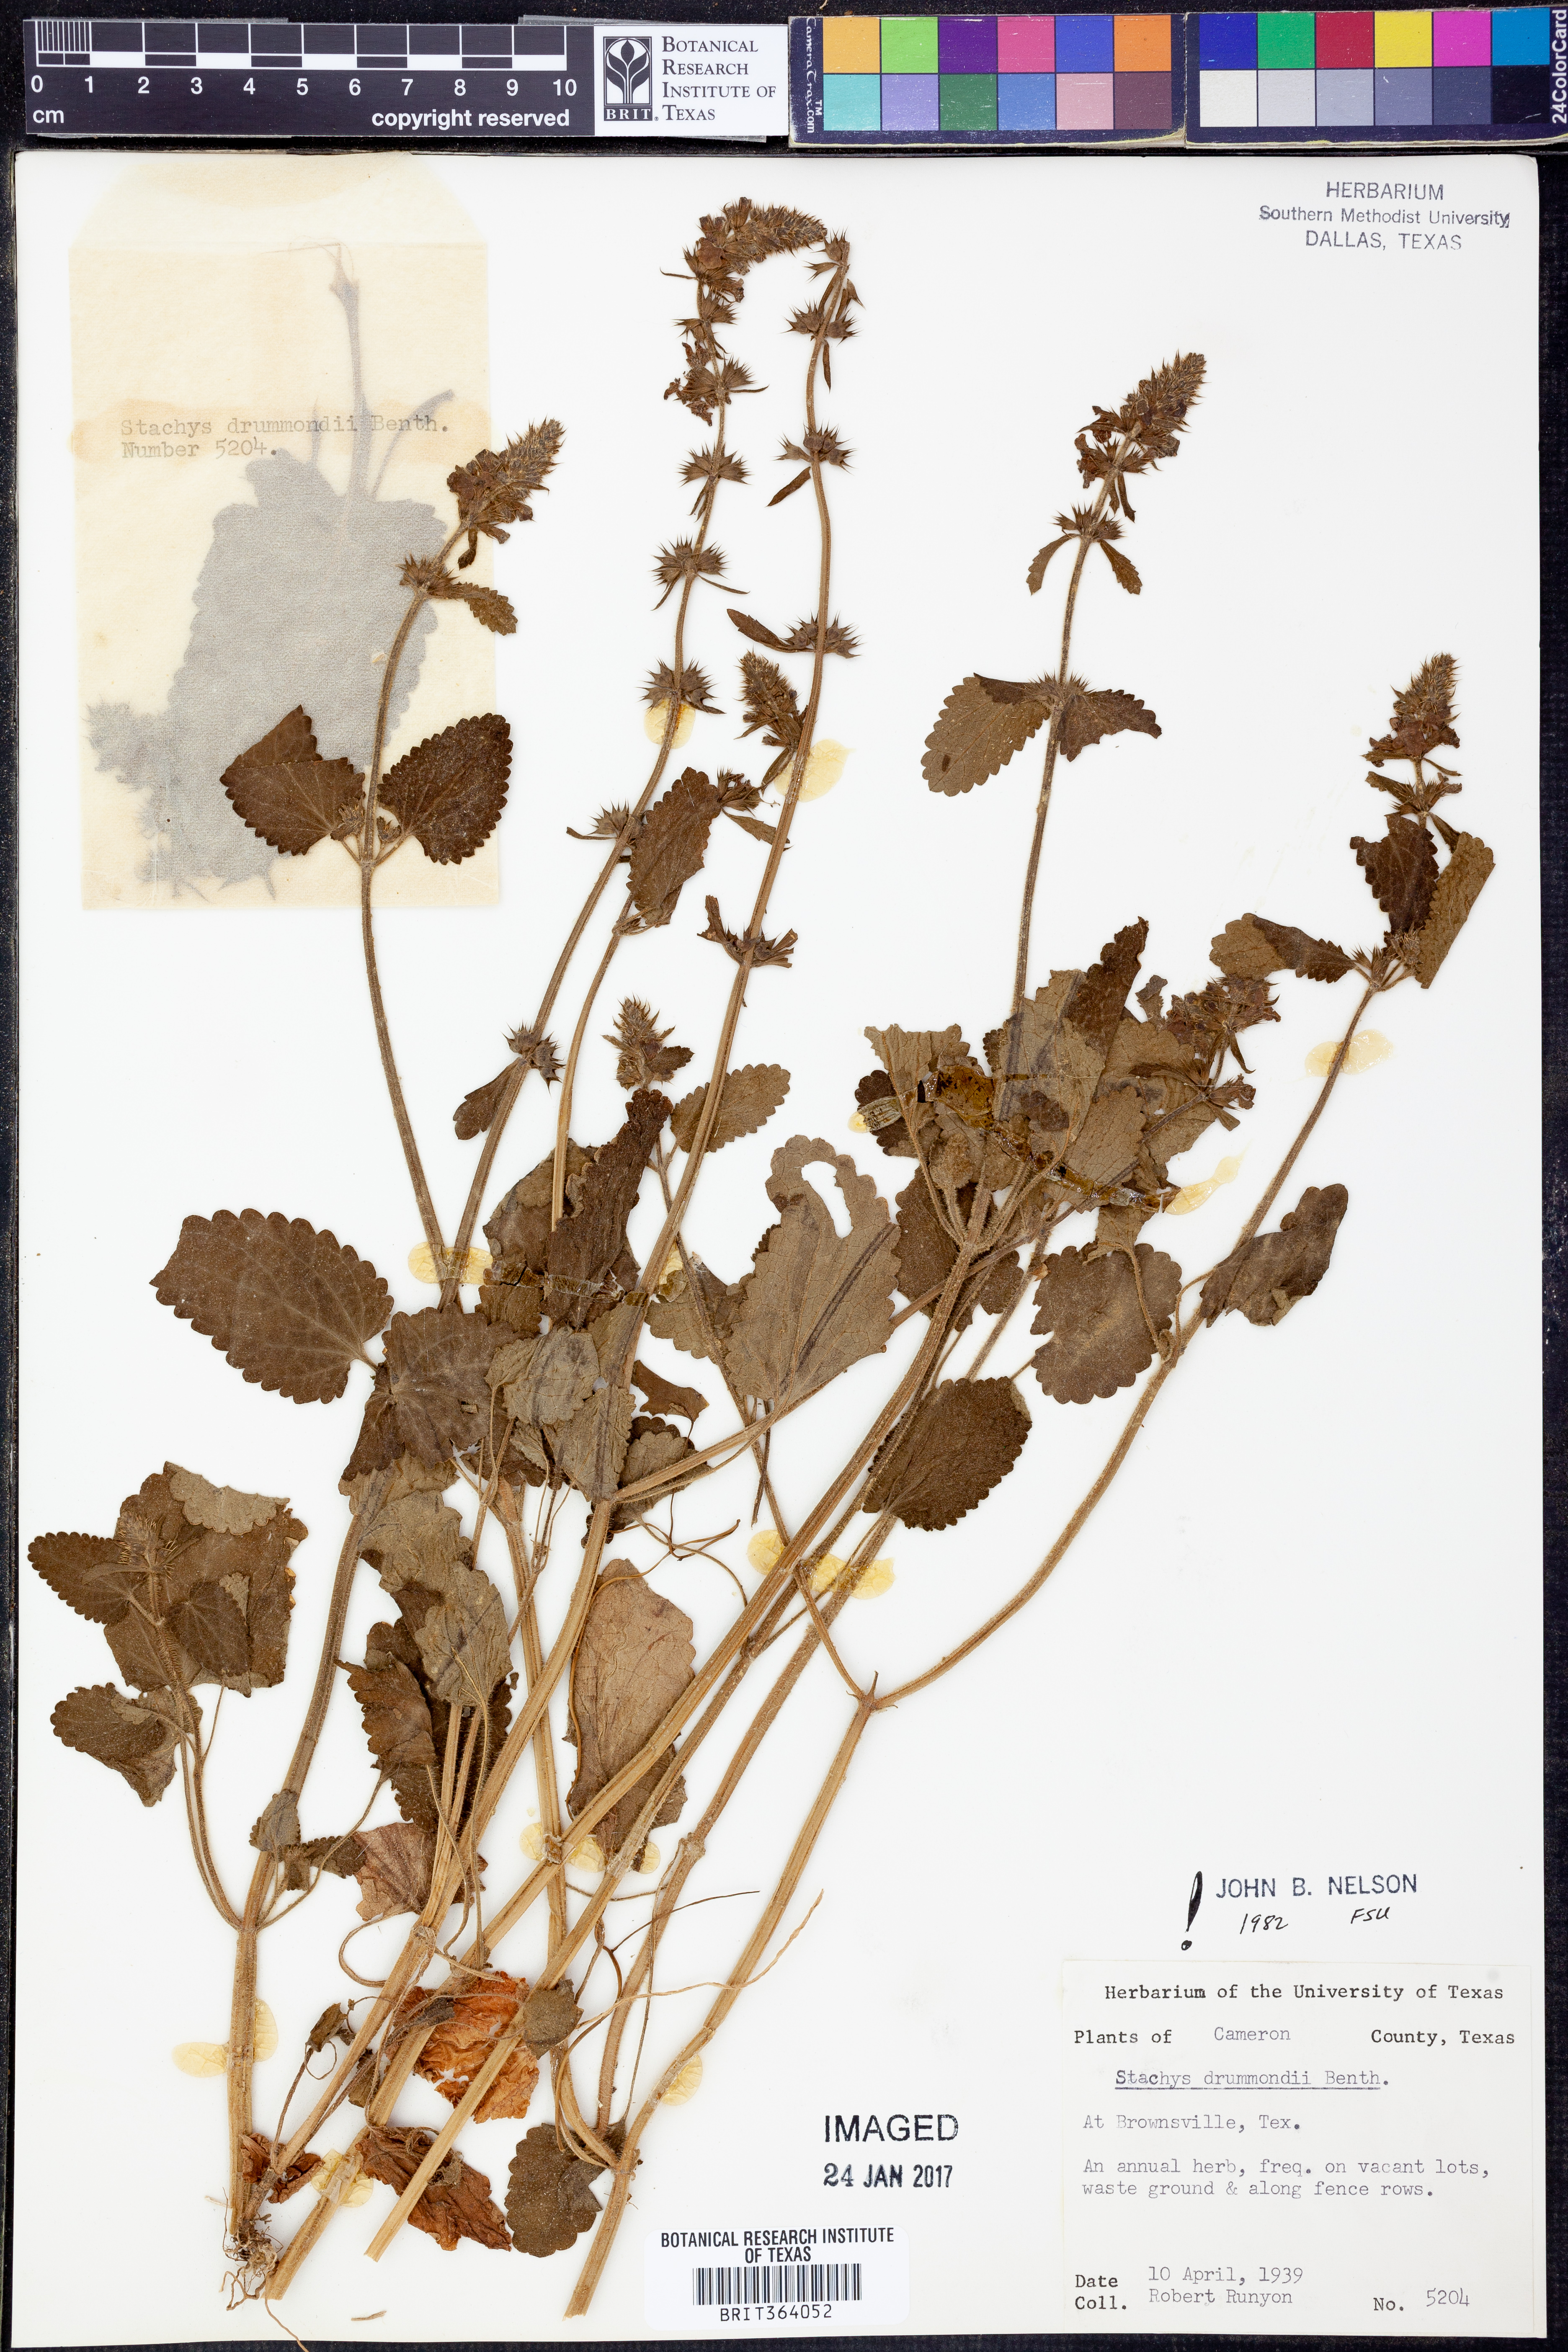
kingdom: Plantae
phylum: Tracheophyta
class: Magnoliopsida
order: Lamiales
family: Lamiaceae
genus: Stachys
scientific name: Stachys drummondii
